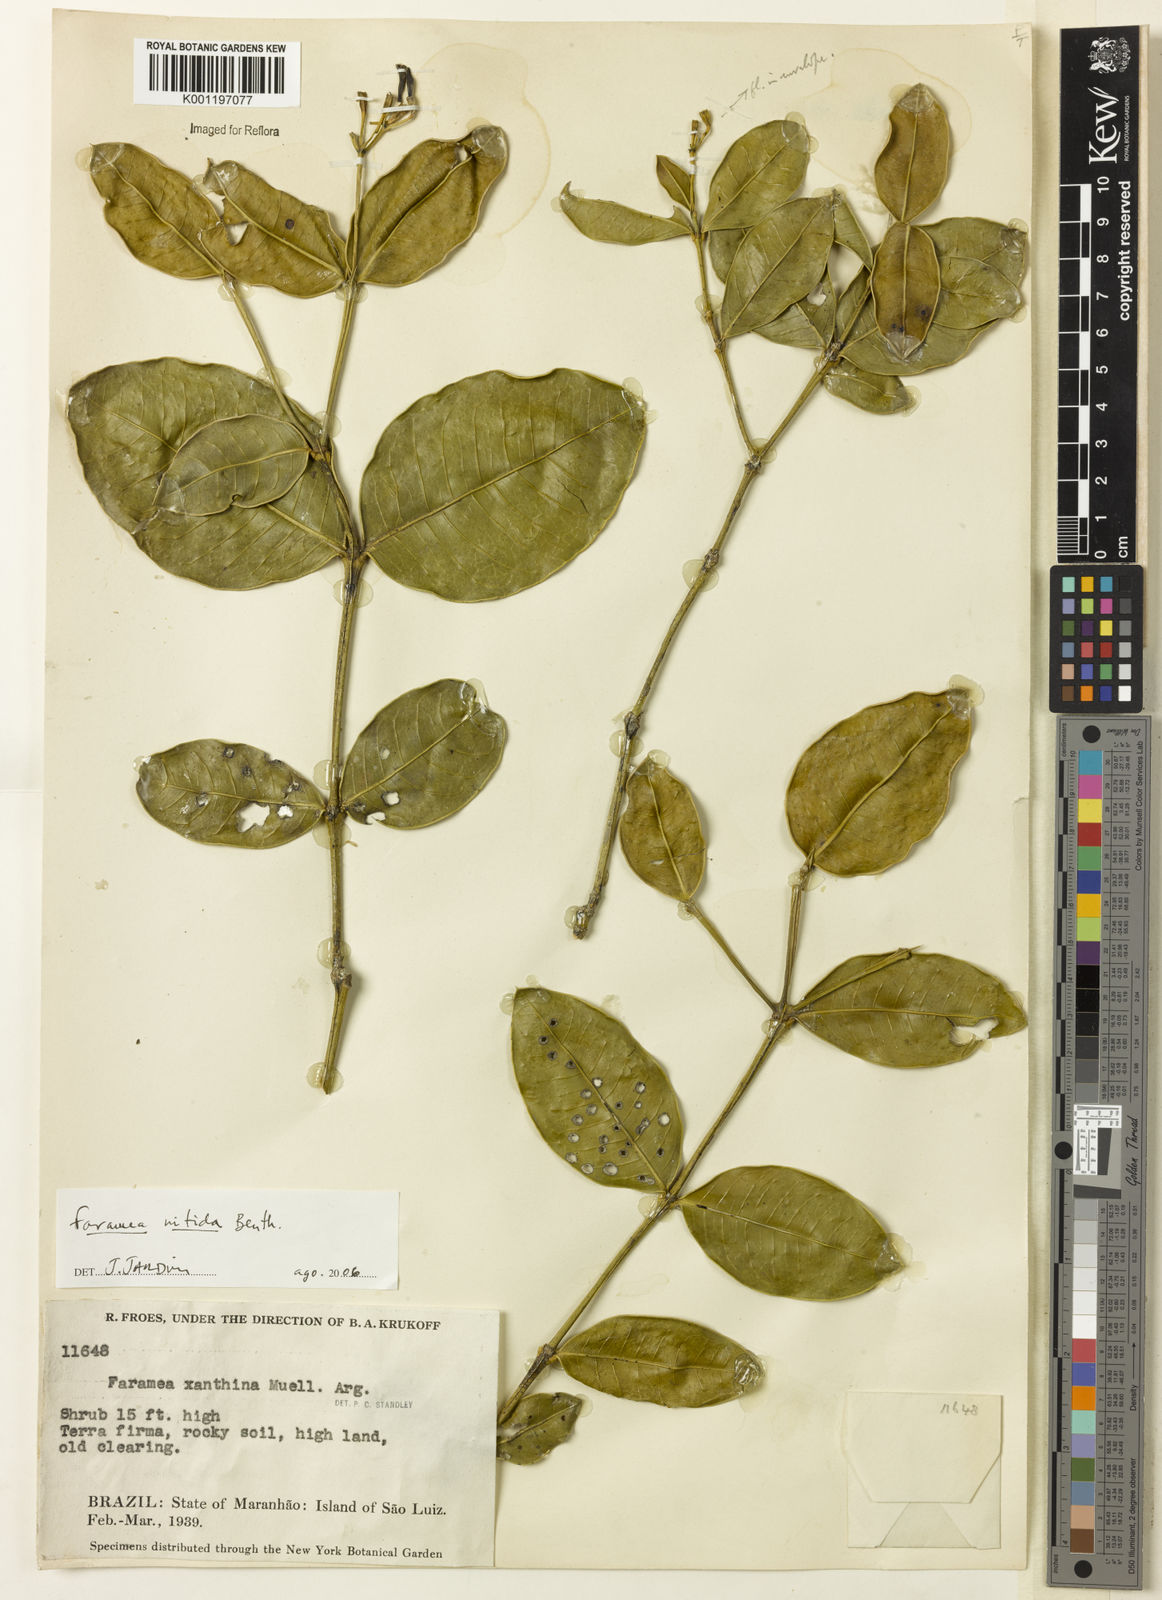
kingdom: Plantae
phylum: Tracheophyta
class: Magnoliopsida
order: Gentianales
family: Rubiaceae
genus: Faramea
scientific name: Faramea nitida
